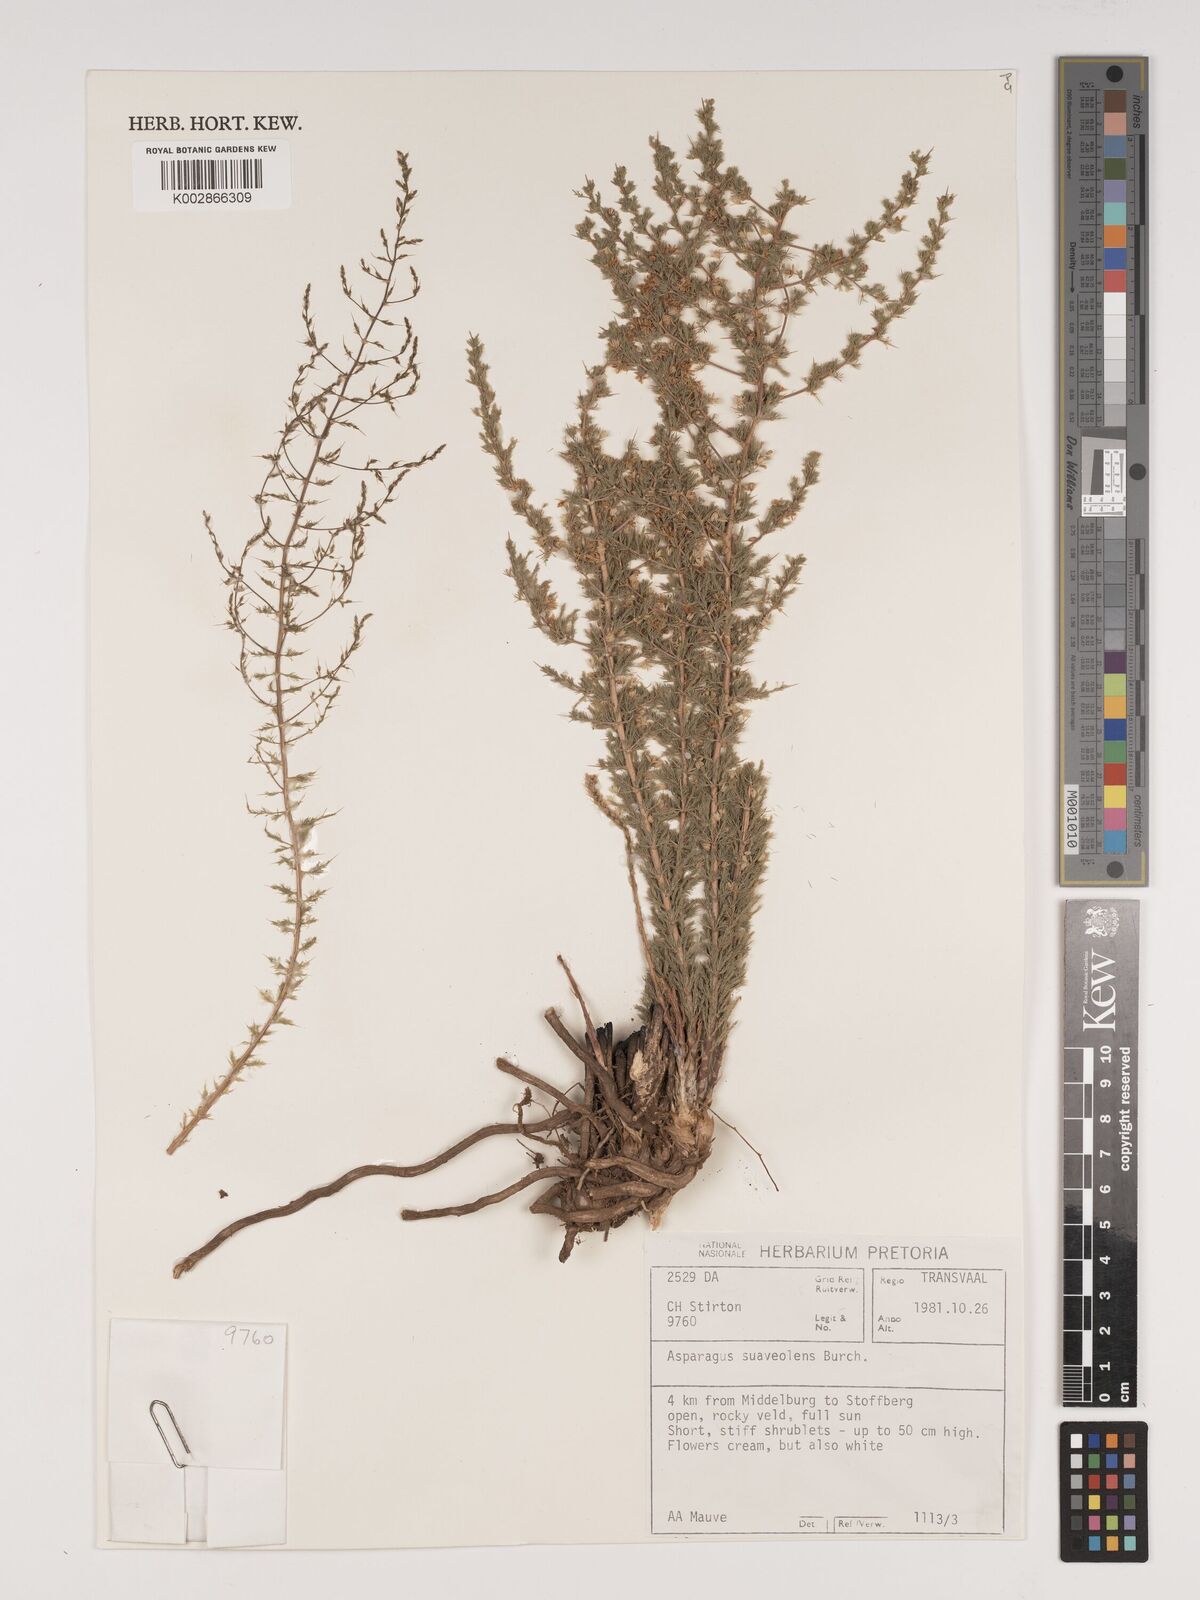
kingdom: Plantae
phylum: Tracheophyta
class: Liliopsida
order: Asparagales
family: Asparagaceae
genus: Asparagus
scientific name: Asparagus suaveolens
